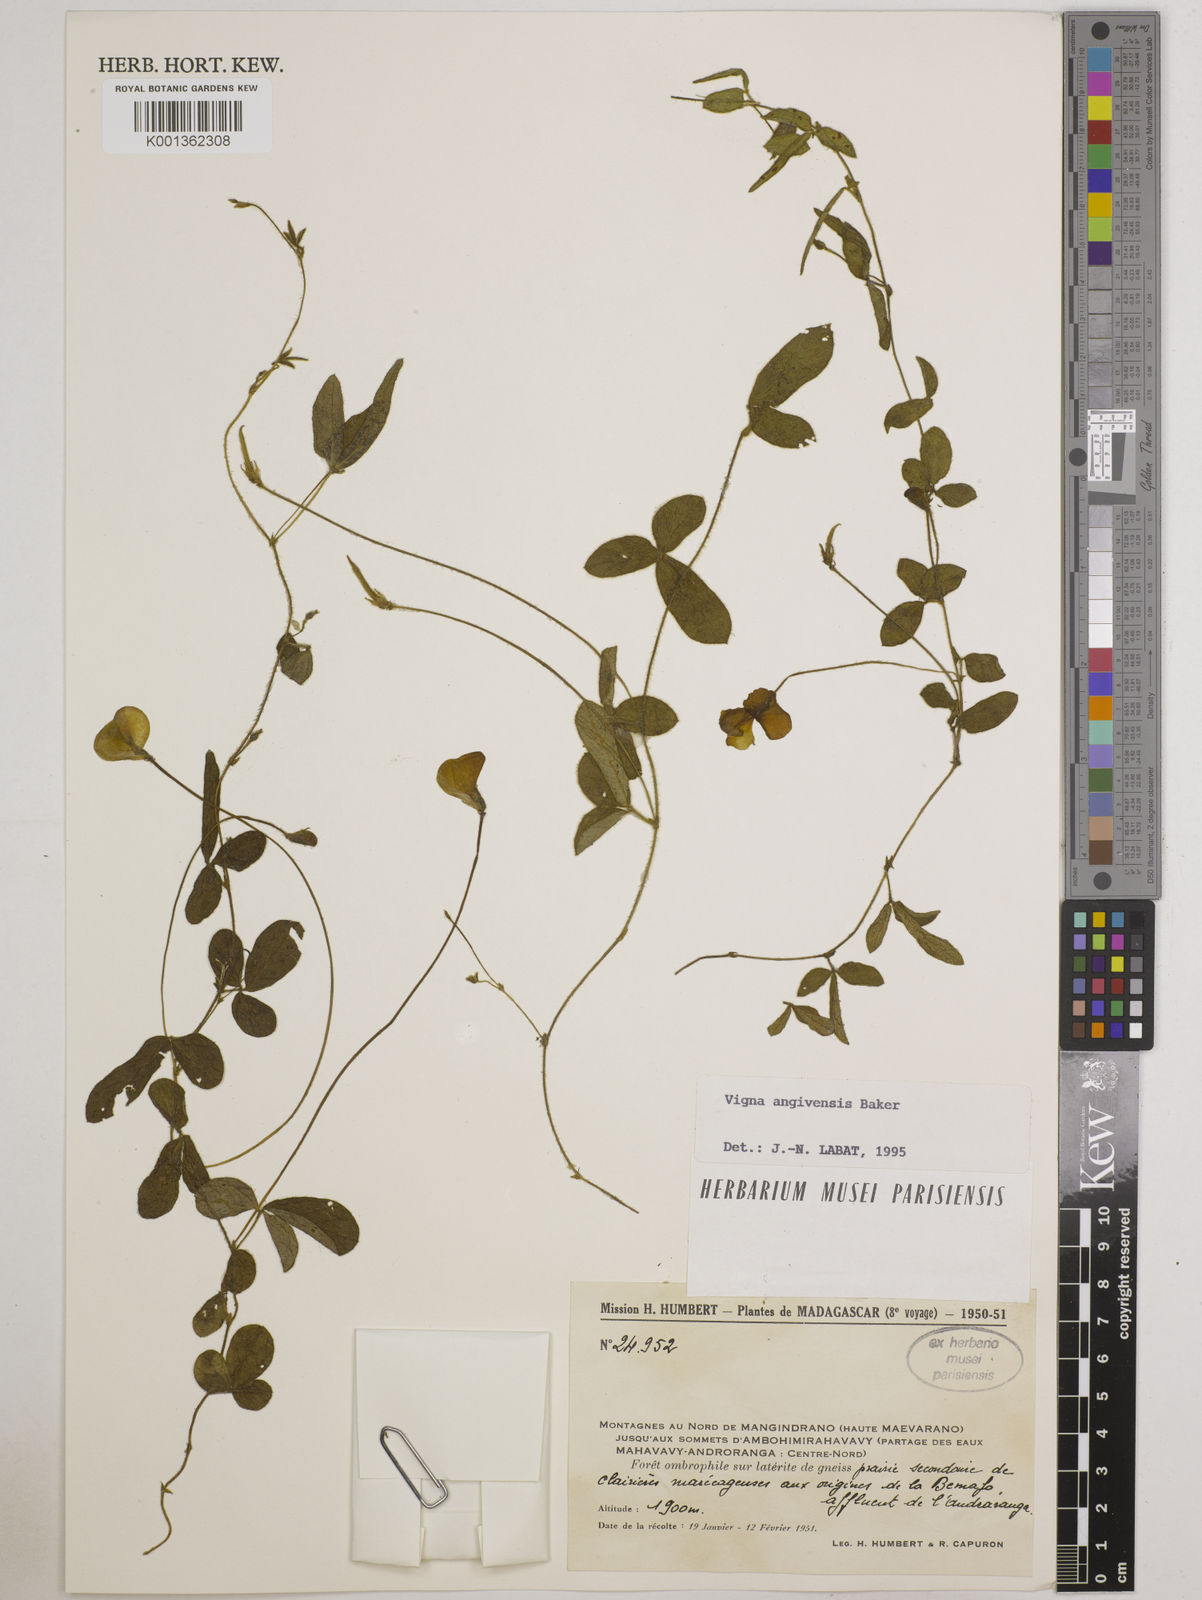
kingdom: Plantae
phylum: Tracheophyta
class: Magnoliopsida
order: Fabales
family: Fabaceae
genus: Vigna
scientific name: Vigna angivensis
